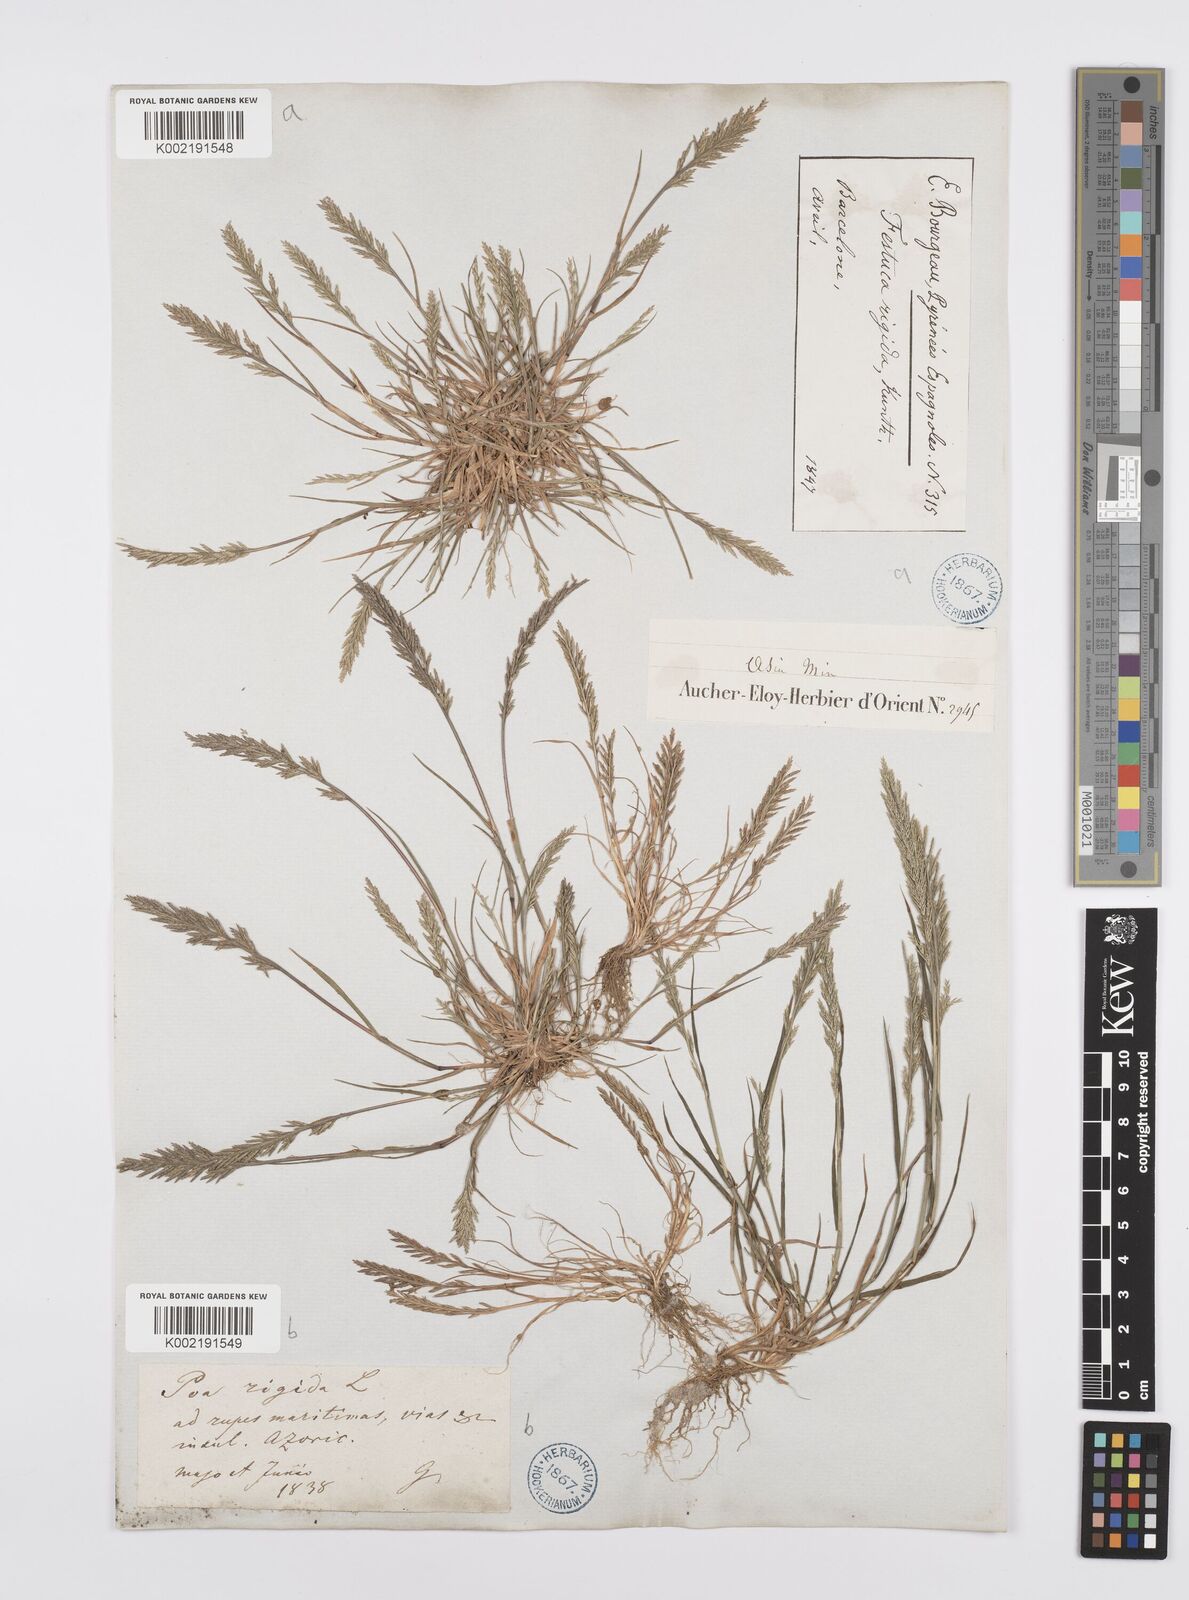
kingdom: Plantae
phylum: Tracheophyta
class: Liliopsida
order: Poales
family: Poaceae
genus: Catapodium
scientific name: Catapodium rigidum
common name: Fern-grass
